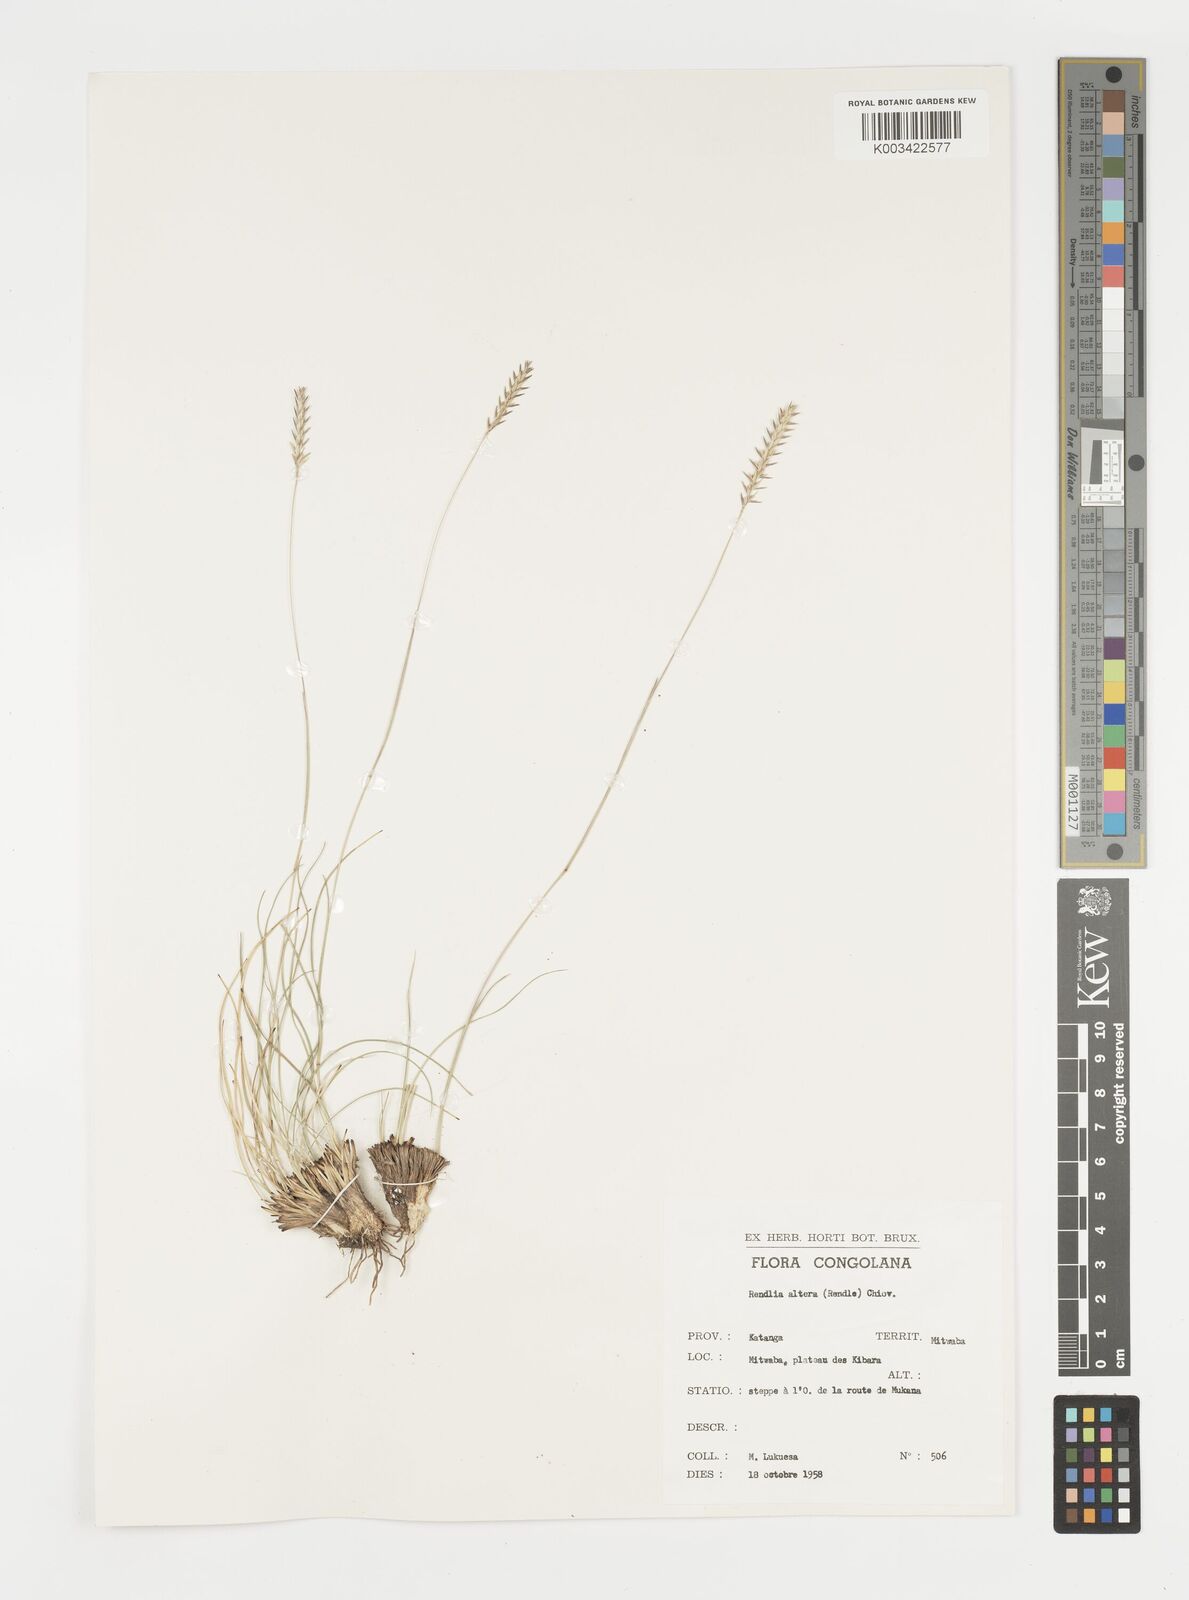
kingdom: Plantae
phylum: Tracheophyta
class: Liliopsida
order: Poales
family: Poaceae
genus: Microchloa
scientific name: Microchloa altera
